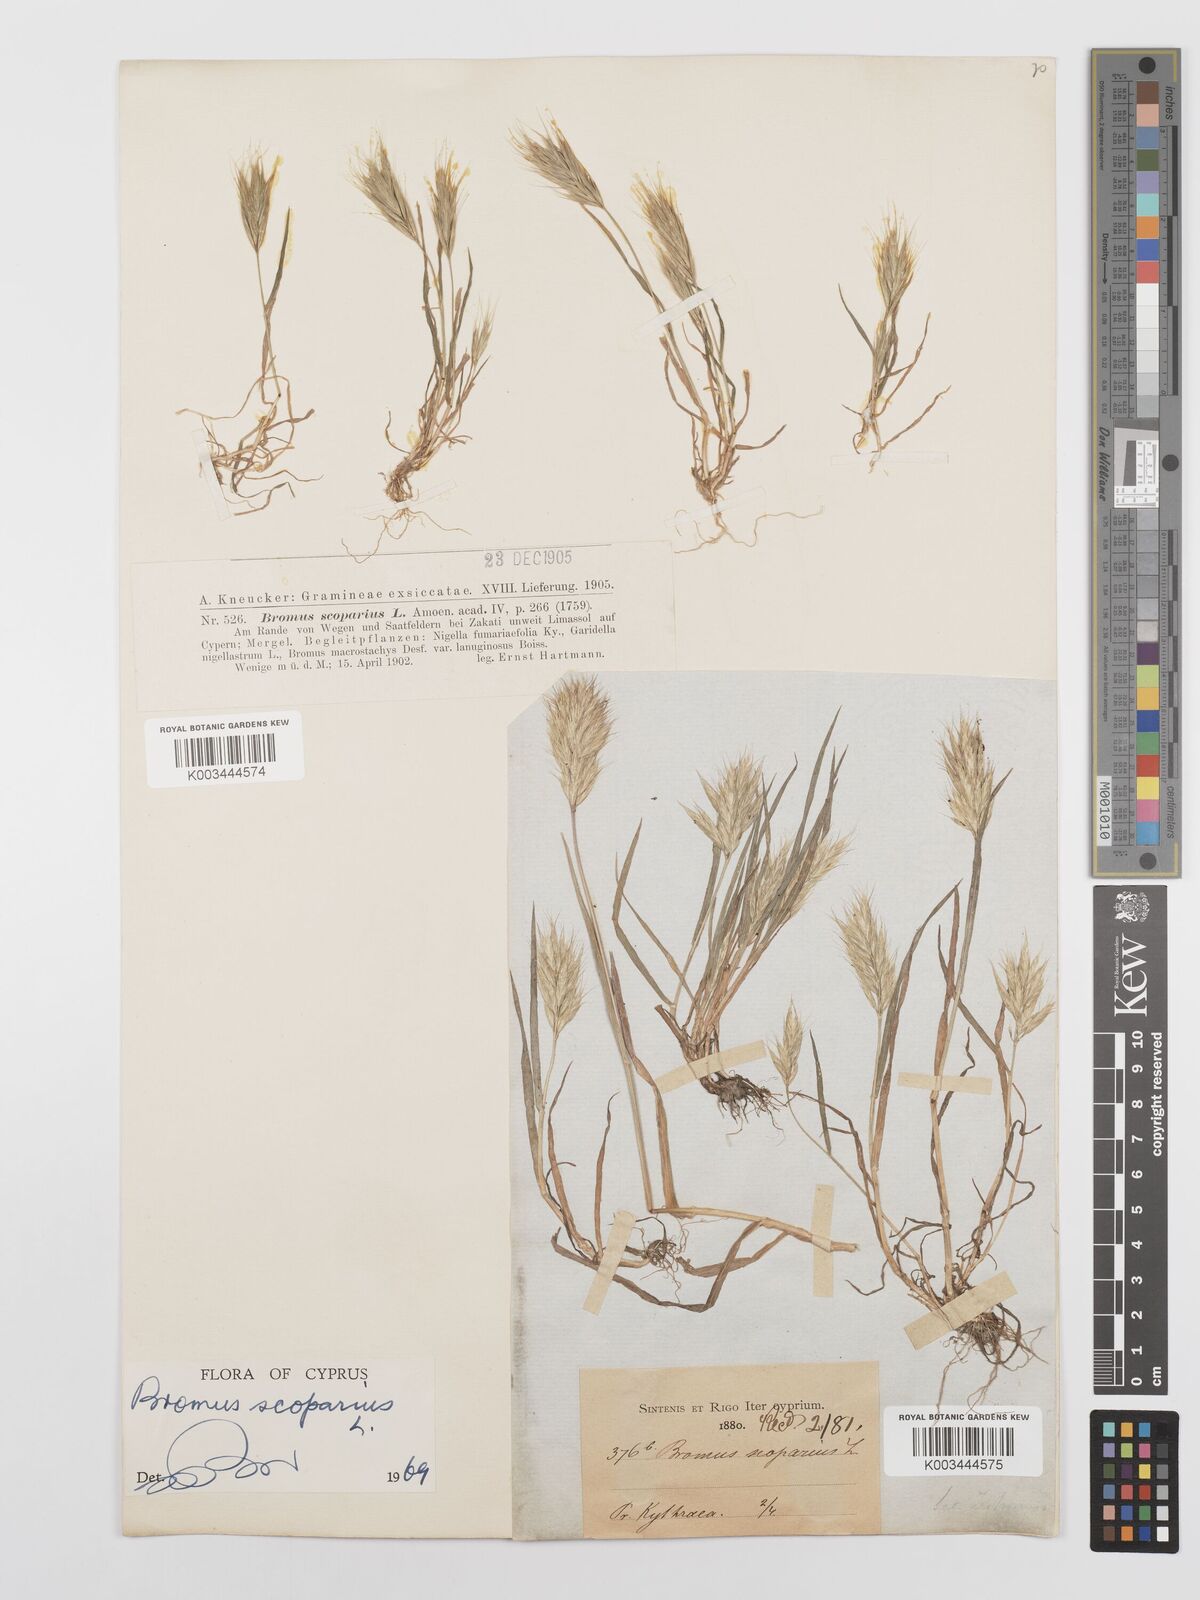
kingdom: Plantae
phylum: Tracheophyta
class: Liliopsida
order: Poales
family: Poaceae
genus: Bromus
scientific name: Bromus scoparius
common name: Broom brome
